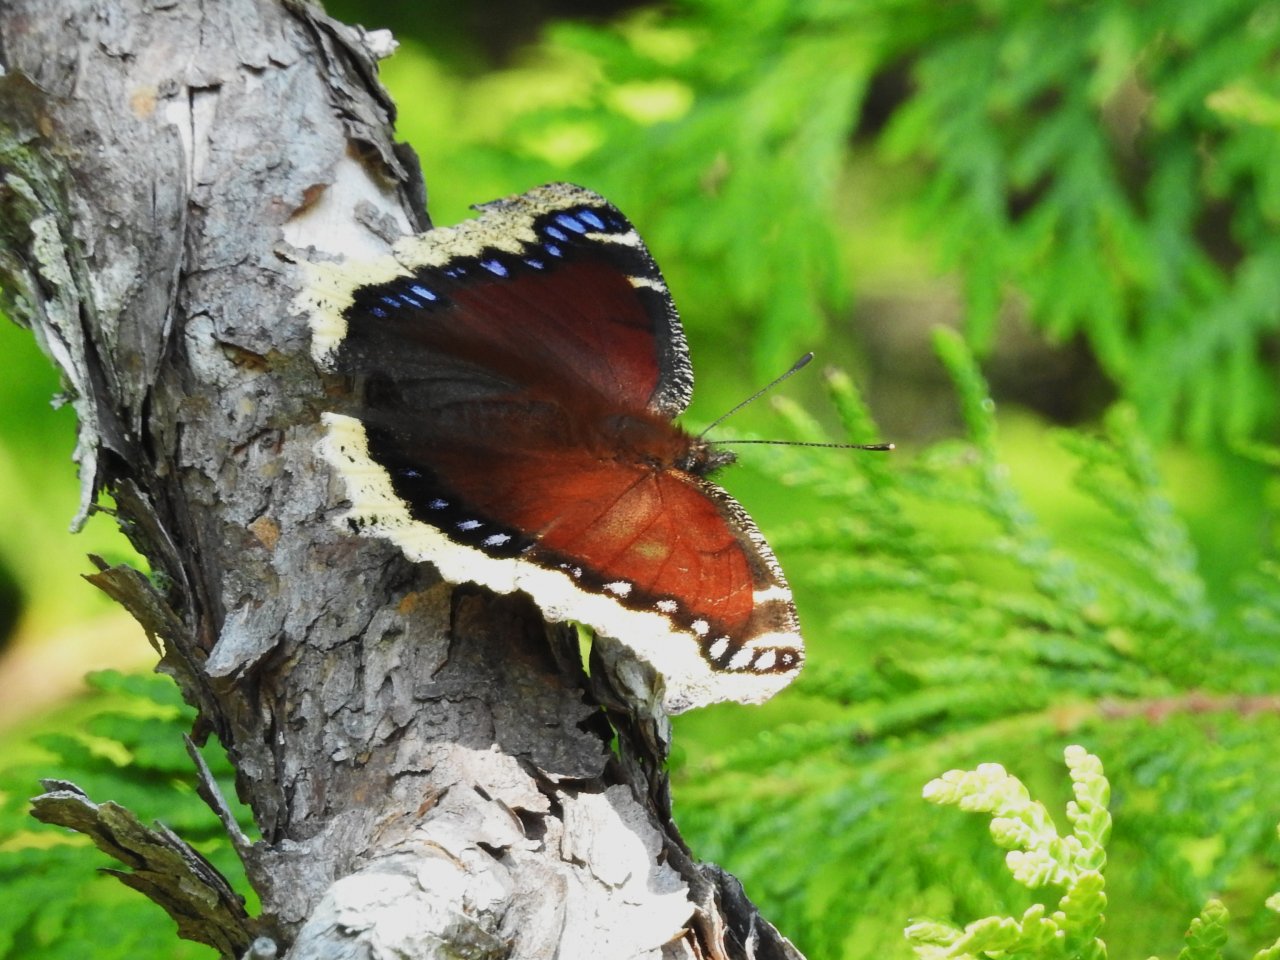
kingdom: Animalia
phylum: Arthropoda
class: Insecta
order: Lepidoptera
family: Nymphalidae
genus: Nymphalis
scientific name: Nymphalis antiopa
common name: Mourning Cloak
